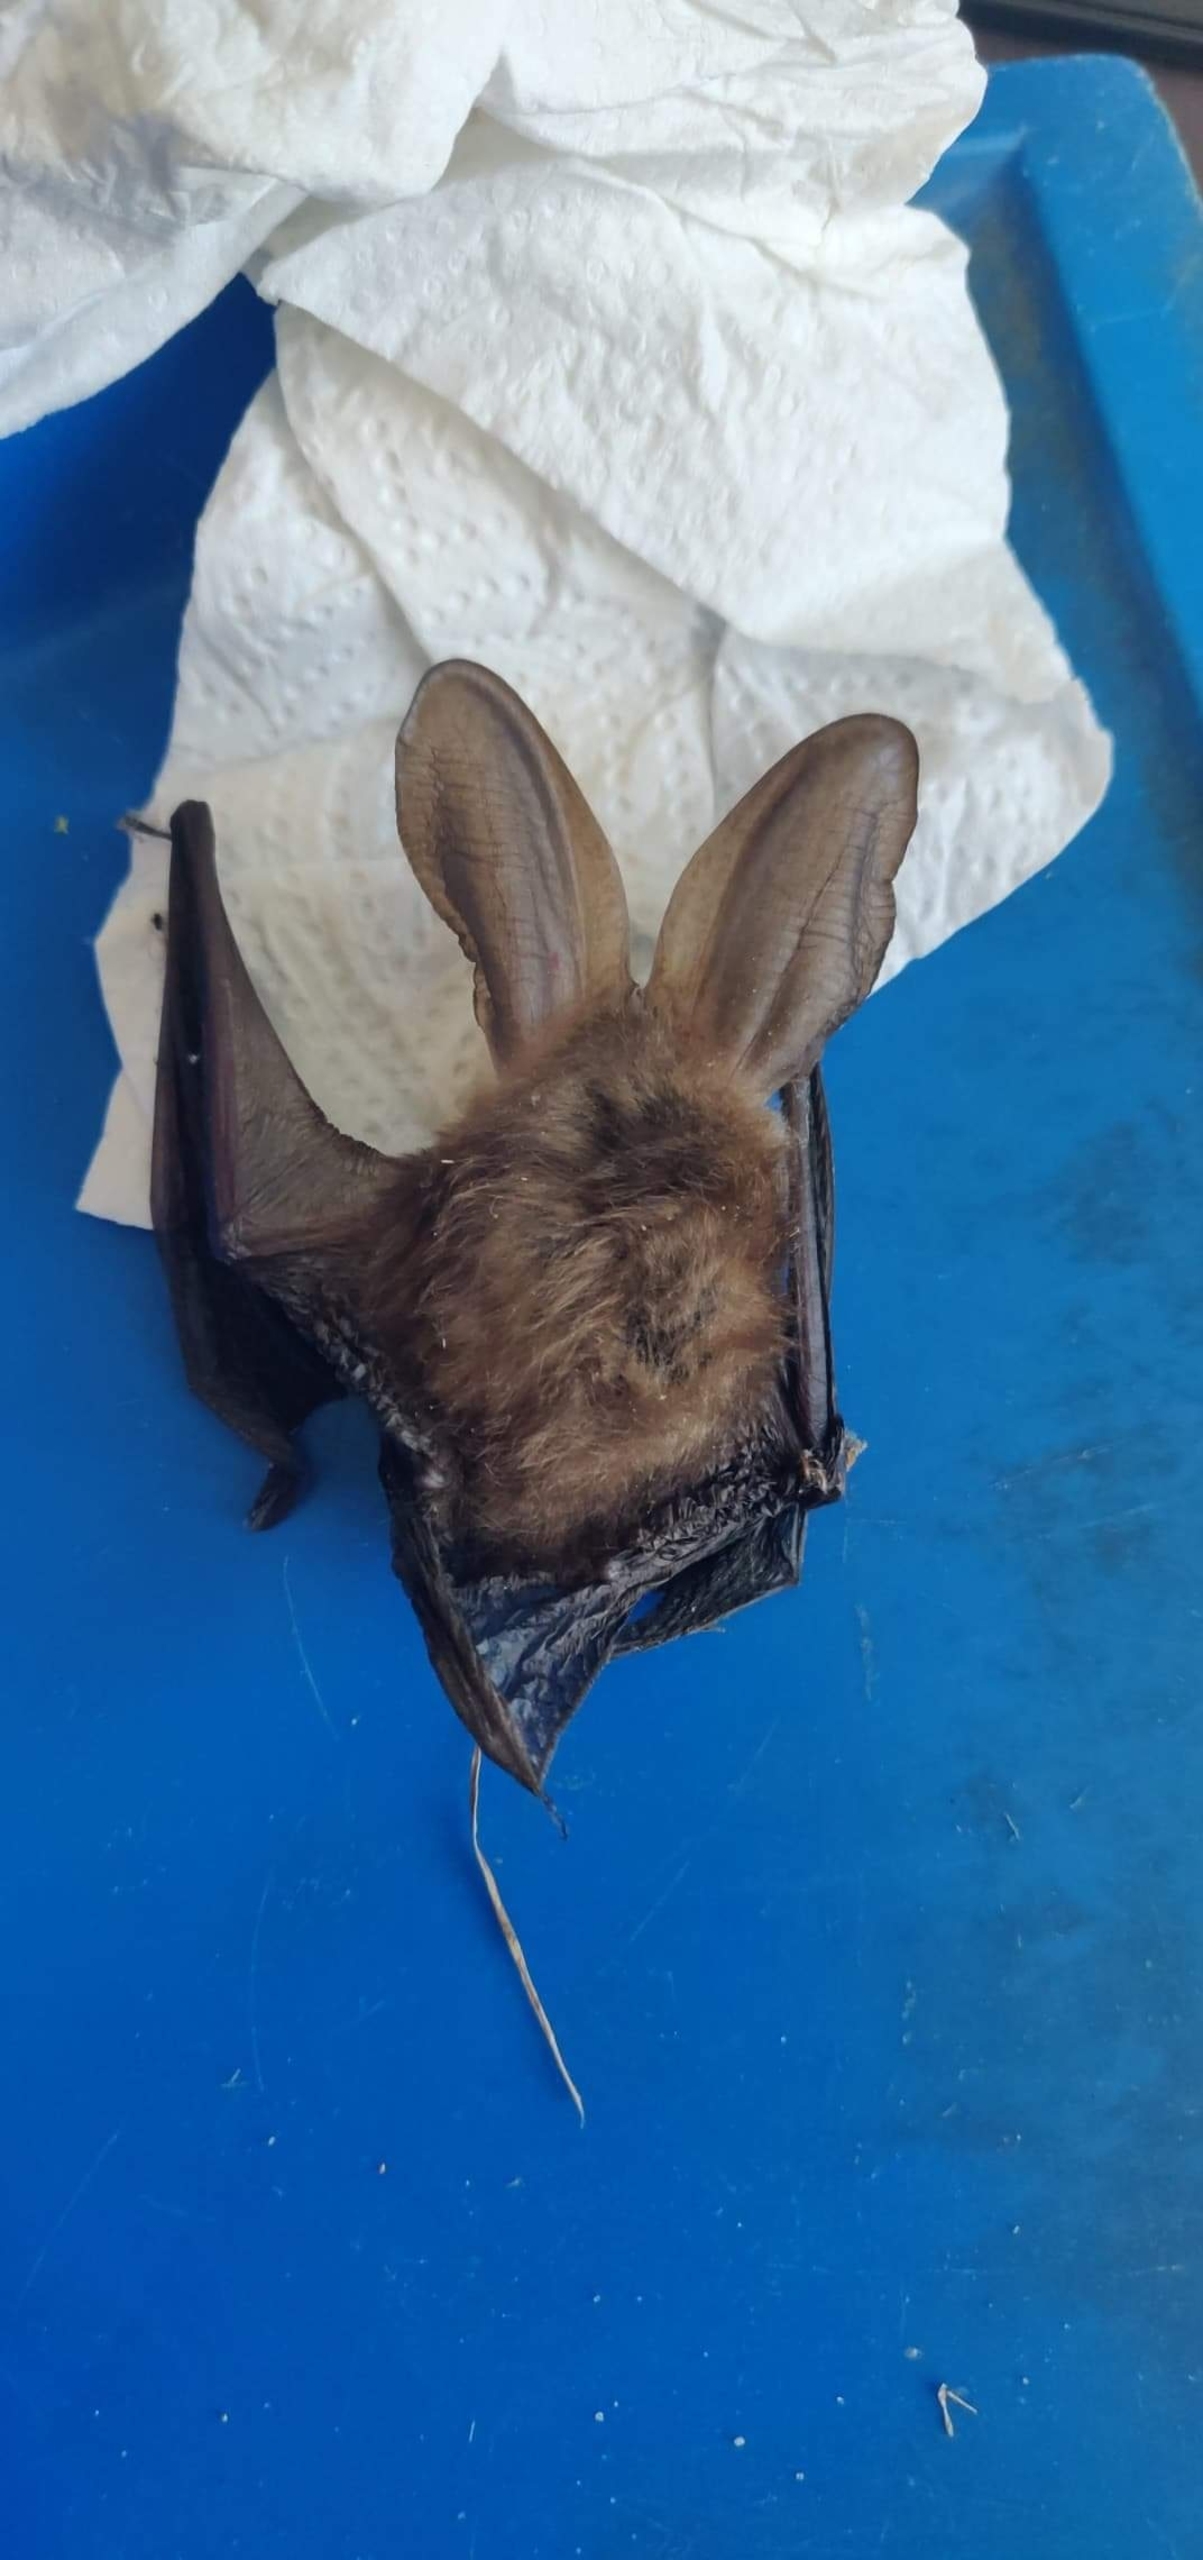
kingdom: Animalia
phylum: Chordata
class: Mammalia
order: Chiroptera
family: Vespertilionidae
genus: Plecotus
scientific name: Plecotus auritus
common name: Brun langøre
